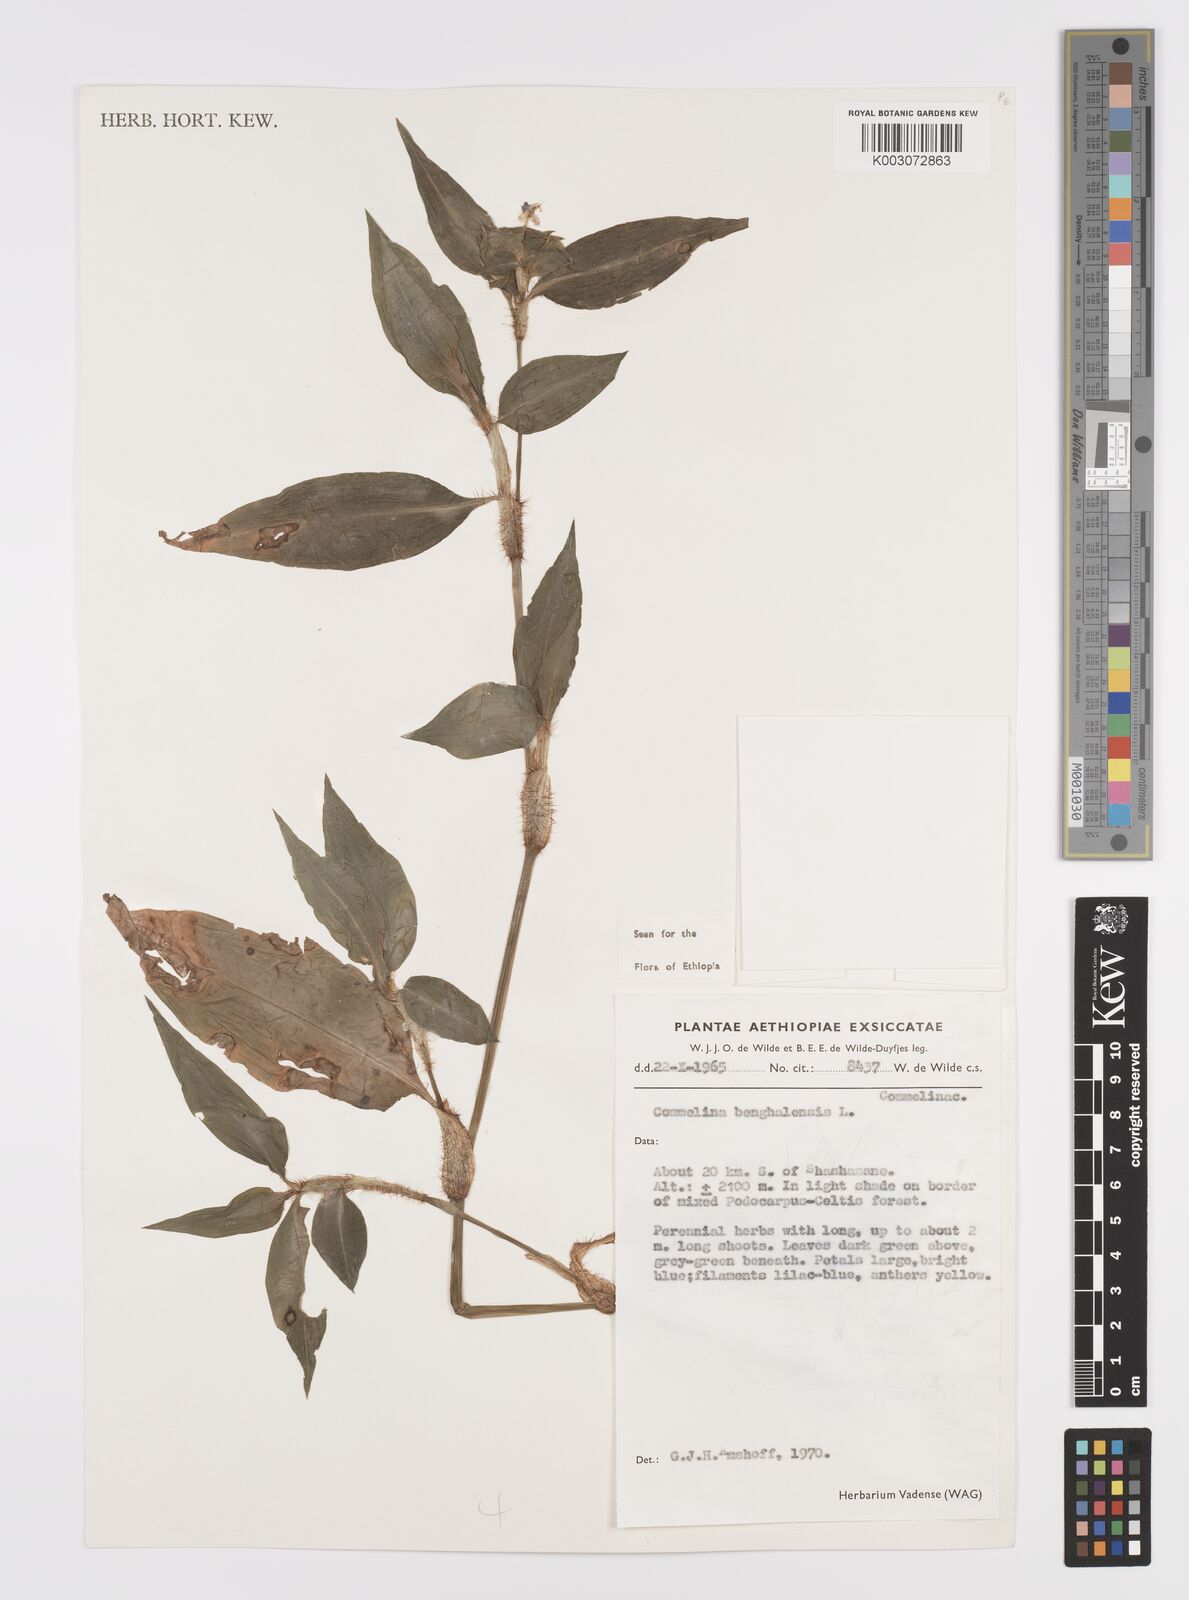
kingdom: Plantae
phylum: Tracheophyta
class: Liliopsida
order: Commelinales
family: Commelinaceae
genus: Commelina
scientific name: Commelina benghalensis
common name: Jio
